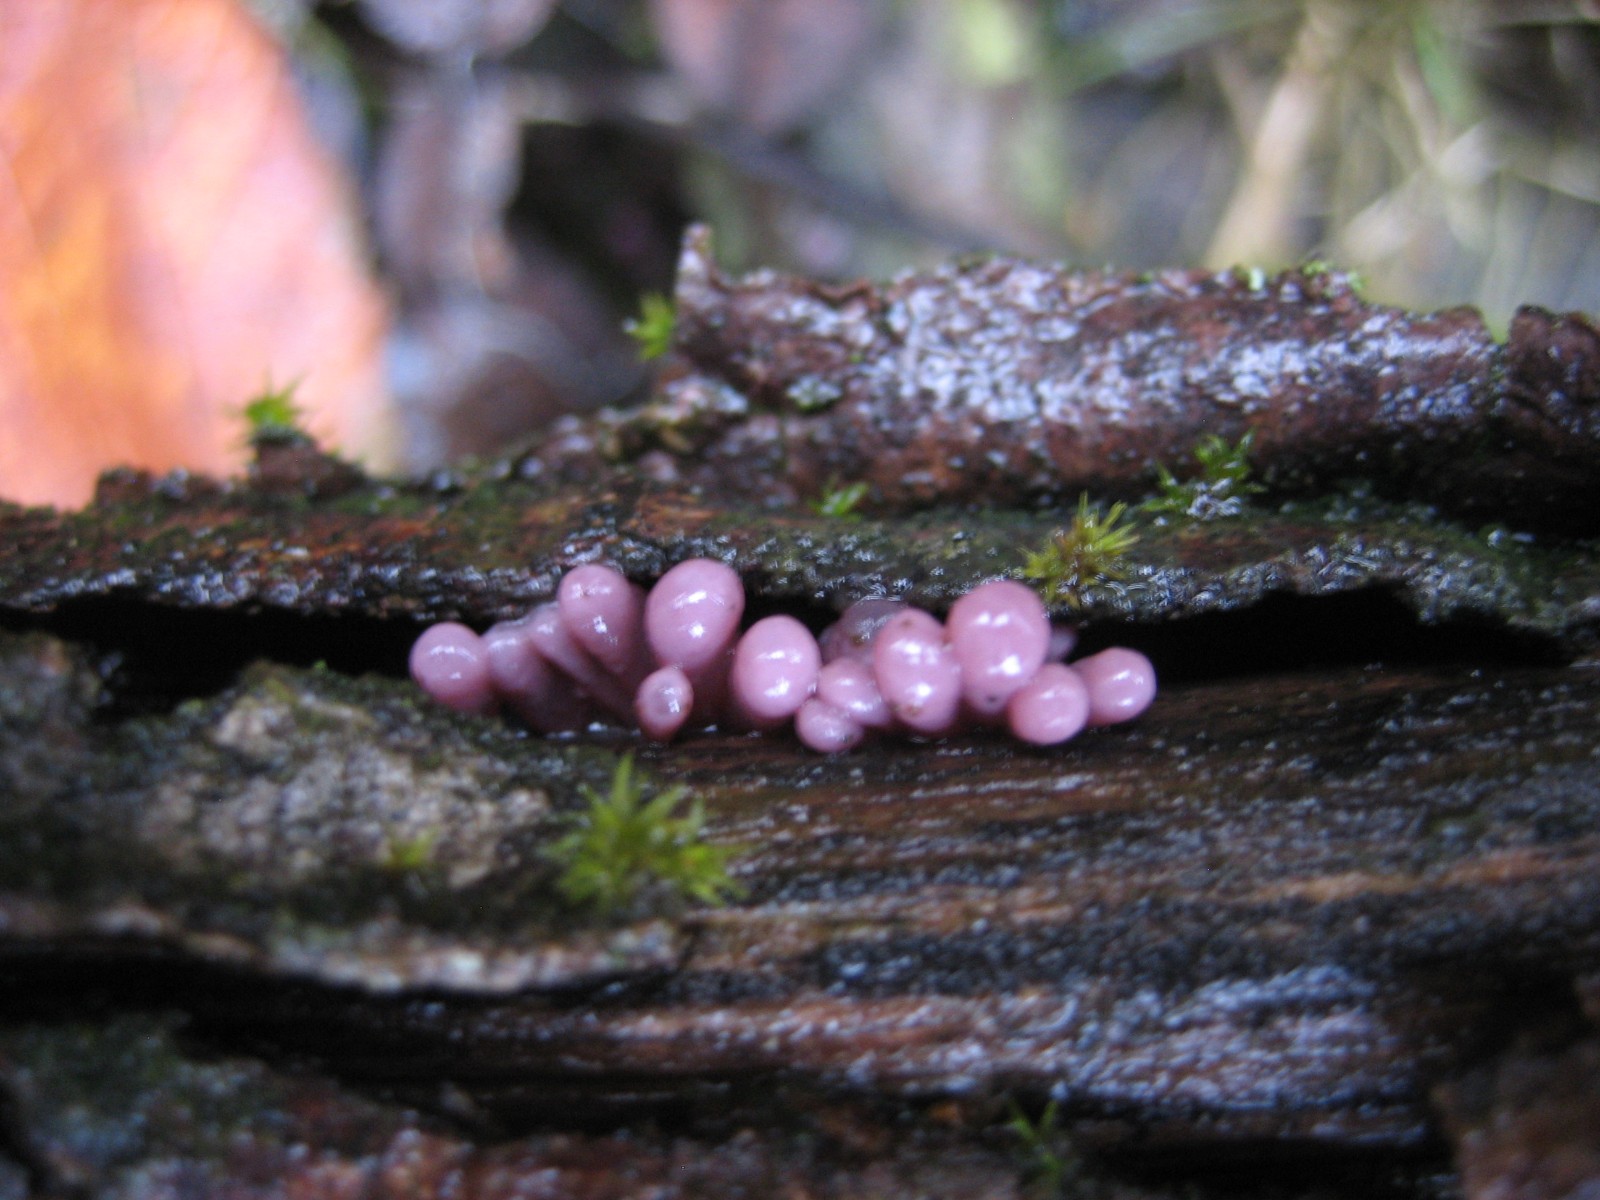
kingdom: Fungi
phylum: Ascomycota
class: Leotiomycetes
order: Helotiales
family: Gelatinodiscaceae
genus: Ascocoryne
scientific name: Ascocoryne sarcoides
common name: rødlilla sejskive
